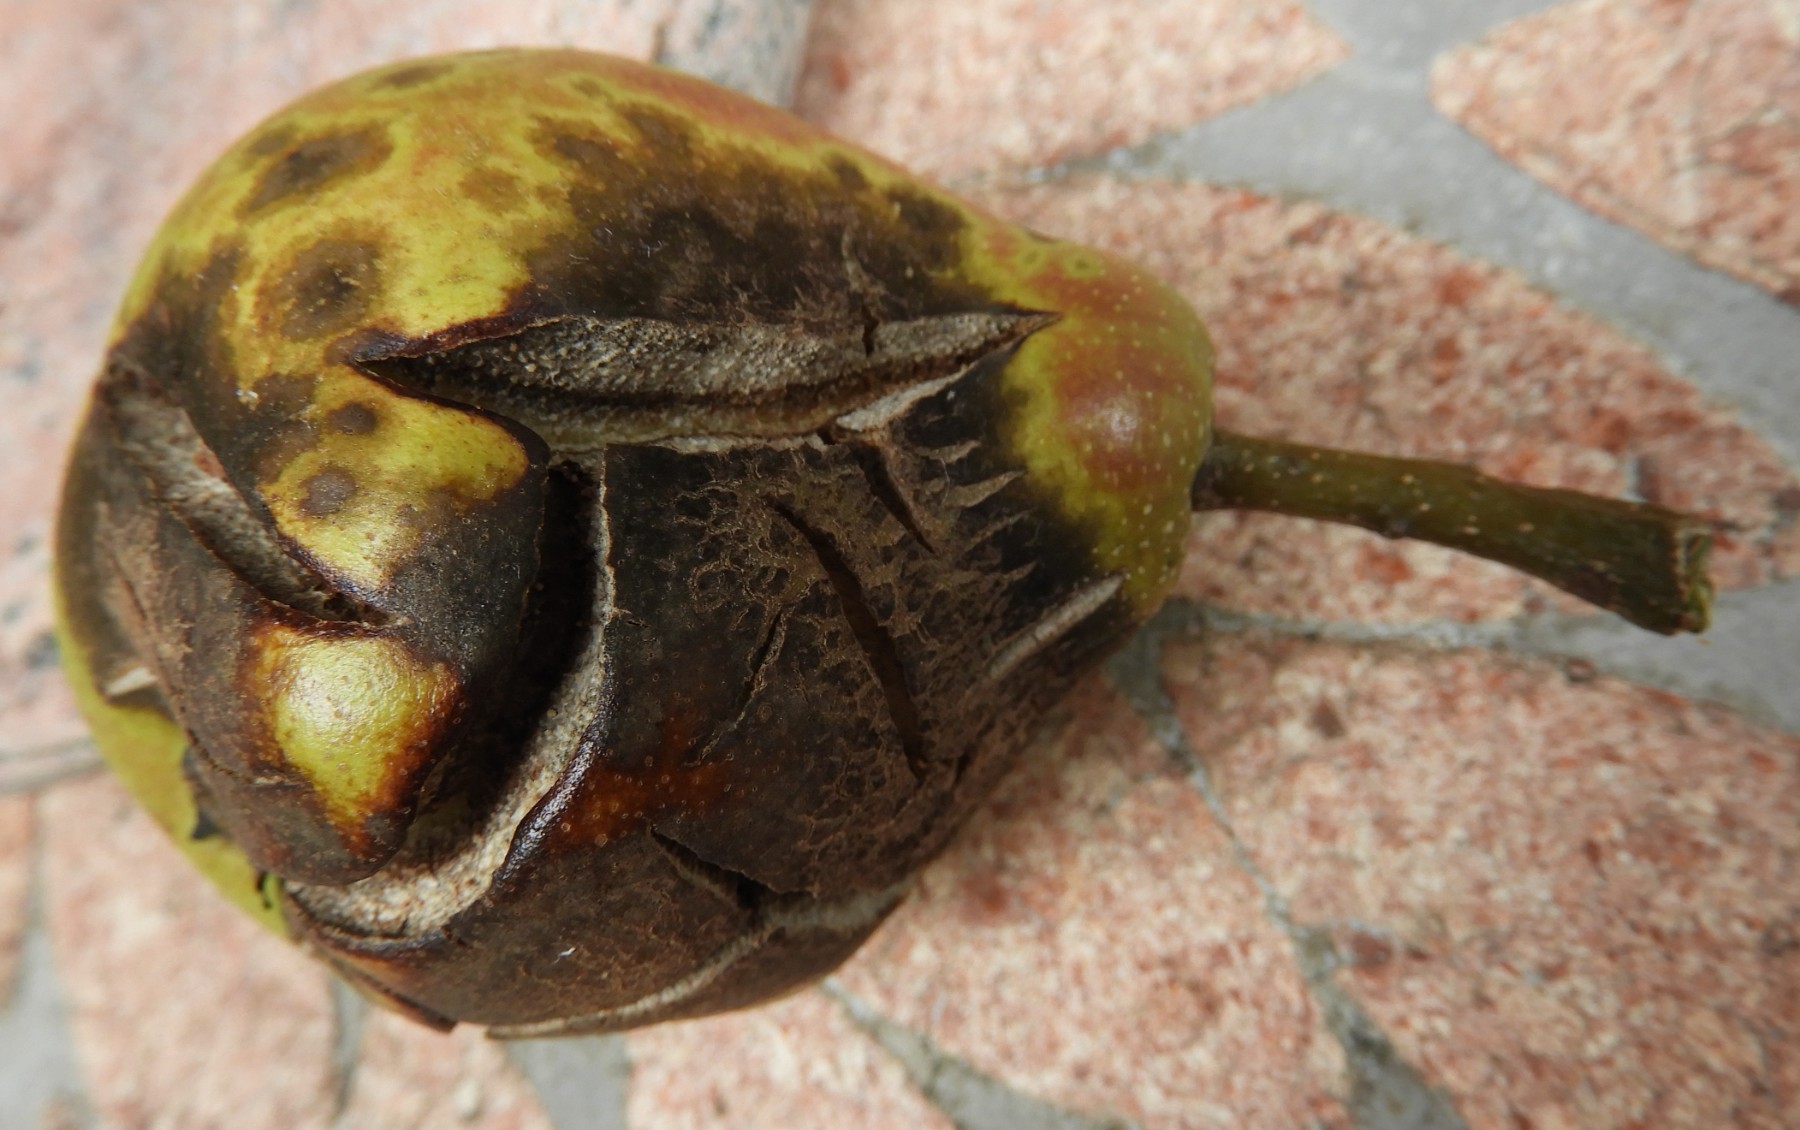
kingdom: Fungi
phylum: Ascomycota
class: Dothideomycetes
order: Venturiales
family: Venturiaceae
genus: Venturia
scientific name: Venturia pyrina
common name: Pear scab
